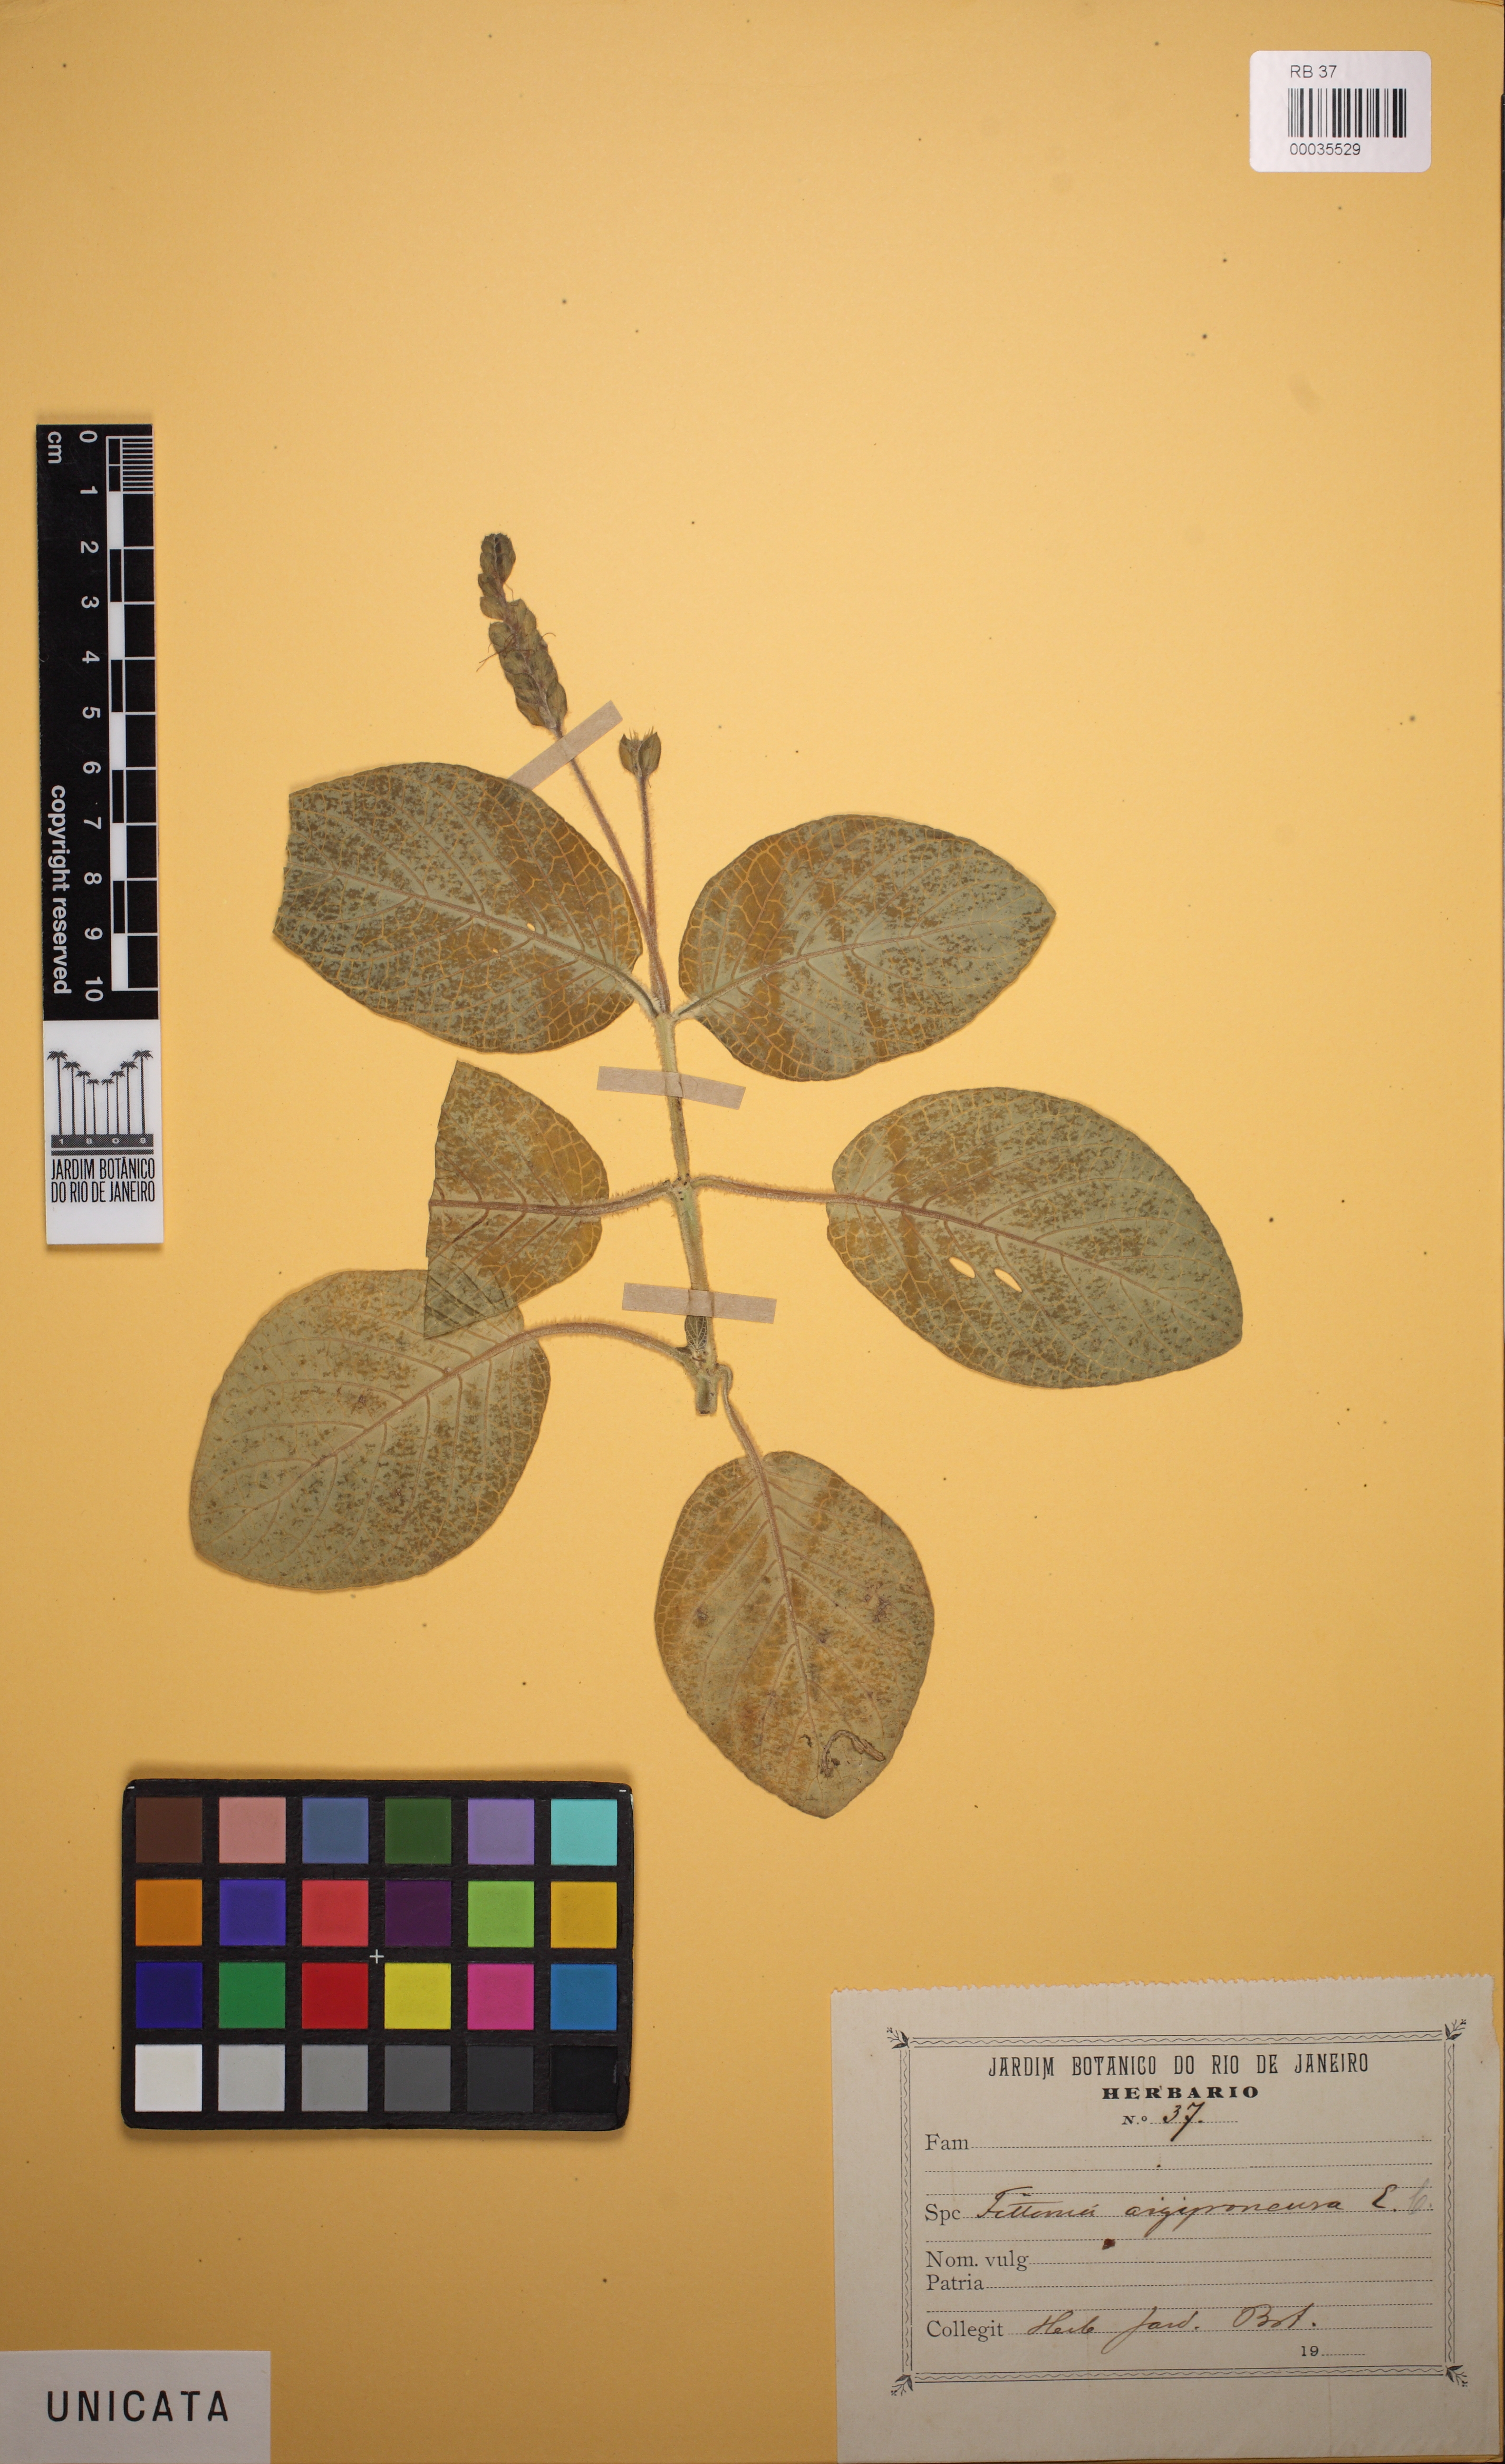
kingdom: Plantae
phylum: Tracheophyta
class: Magnoliopsida
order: Lamiales
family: Acanthaceae
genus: Fittonia
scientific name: Fittonia albivenis
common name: Mosaic-plant
